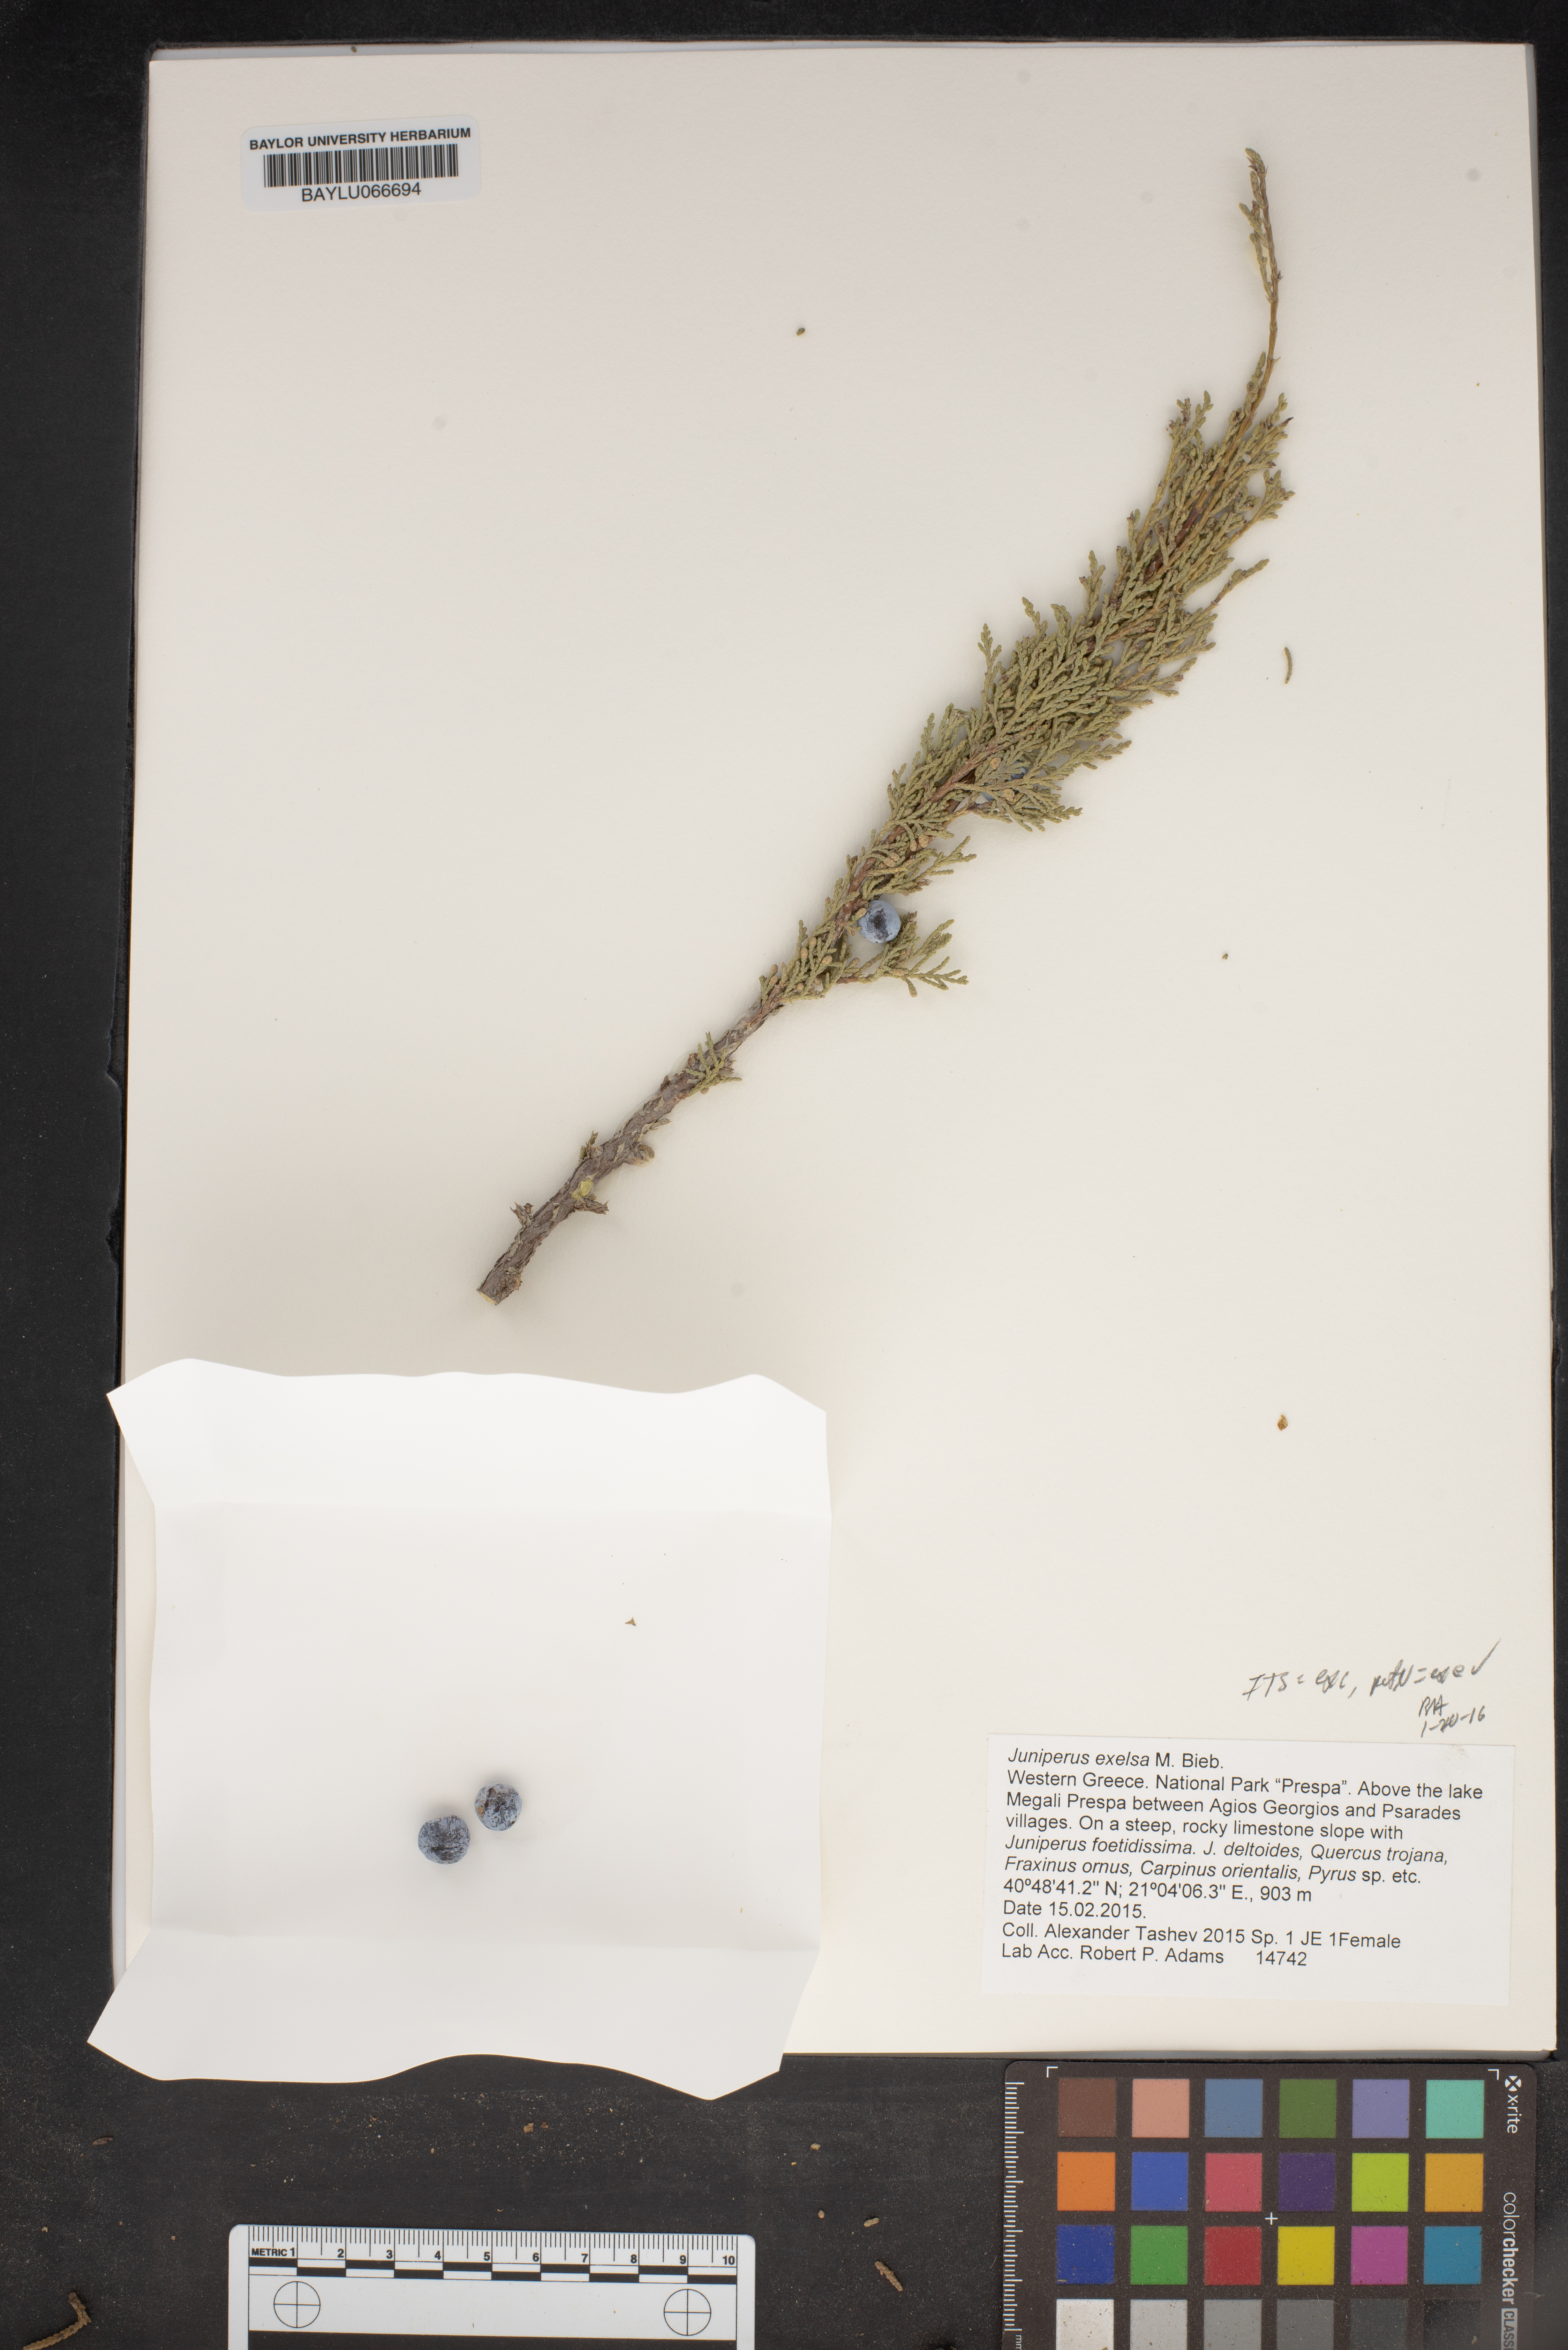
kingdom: Plantae
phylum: Tracheophyta
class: Pinopsida
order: Pinales
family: Cupressaceae
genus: Juniperus
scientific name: Juniperus excelsa
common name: Crimean juniper
